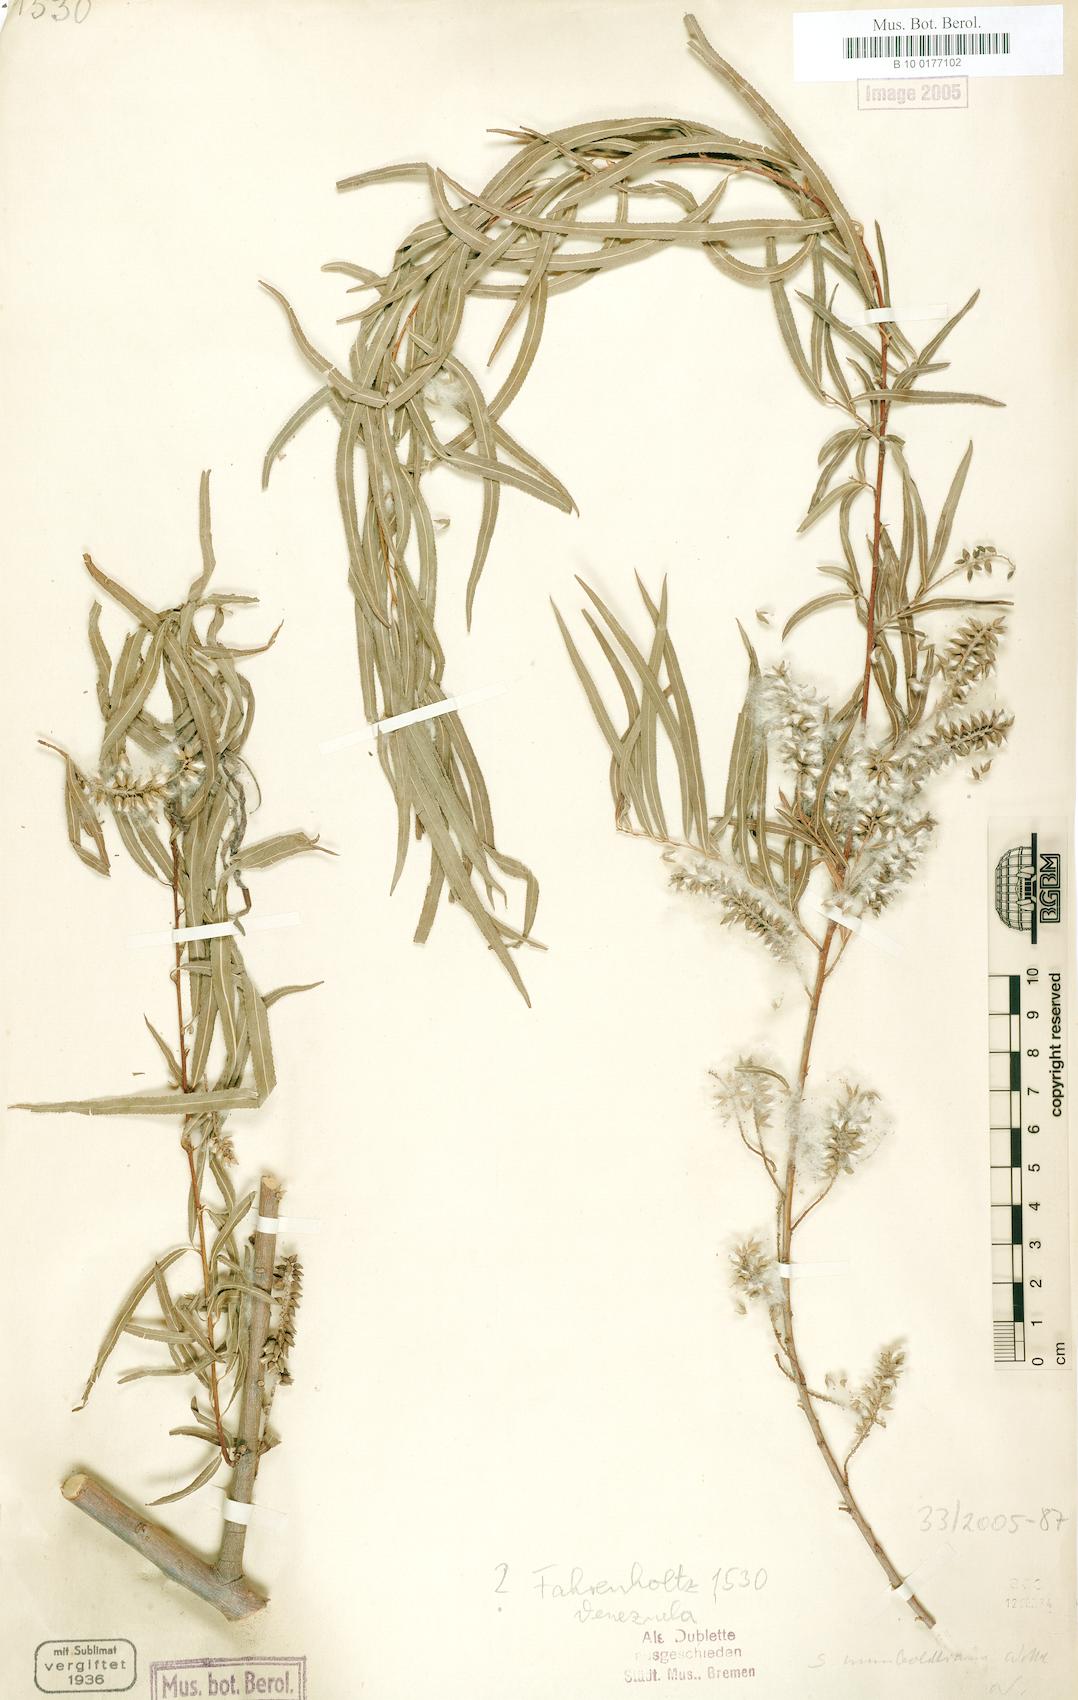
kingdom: Plantae
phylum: Tracheophyta
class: Magnoliopsida
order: Malpighiales
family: Salicaceae
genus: Salix
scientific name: Salix humboldtiana
